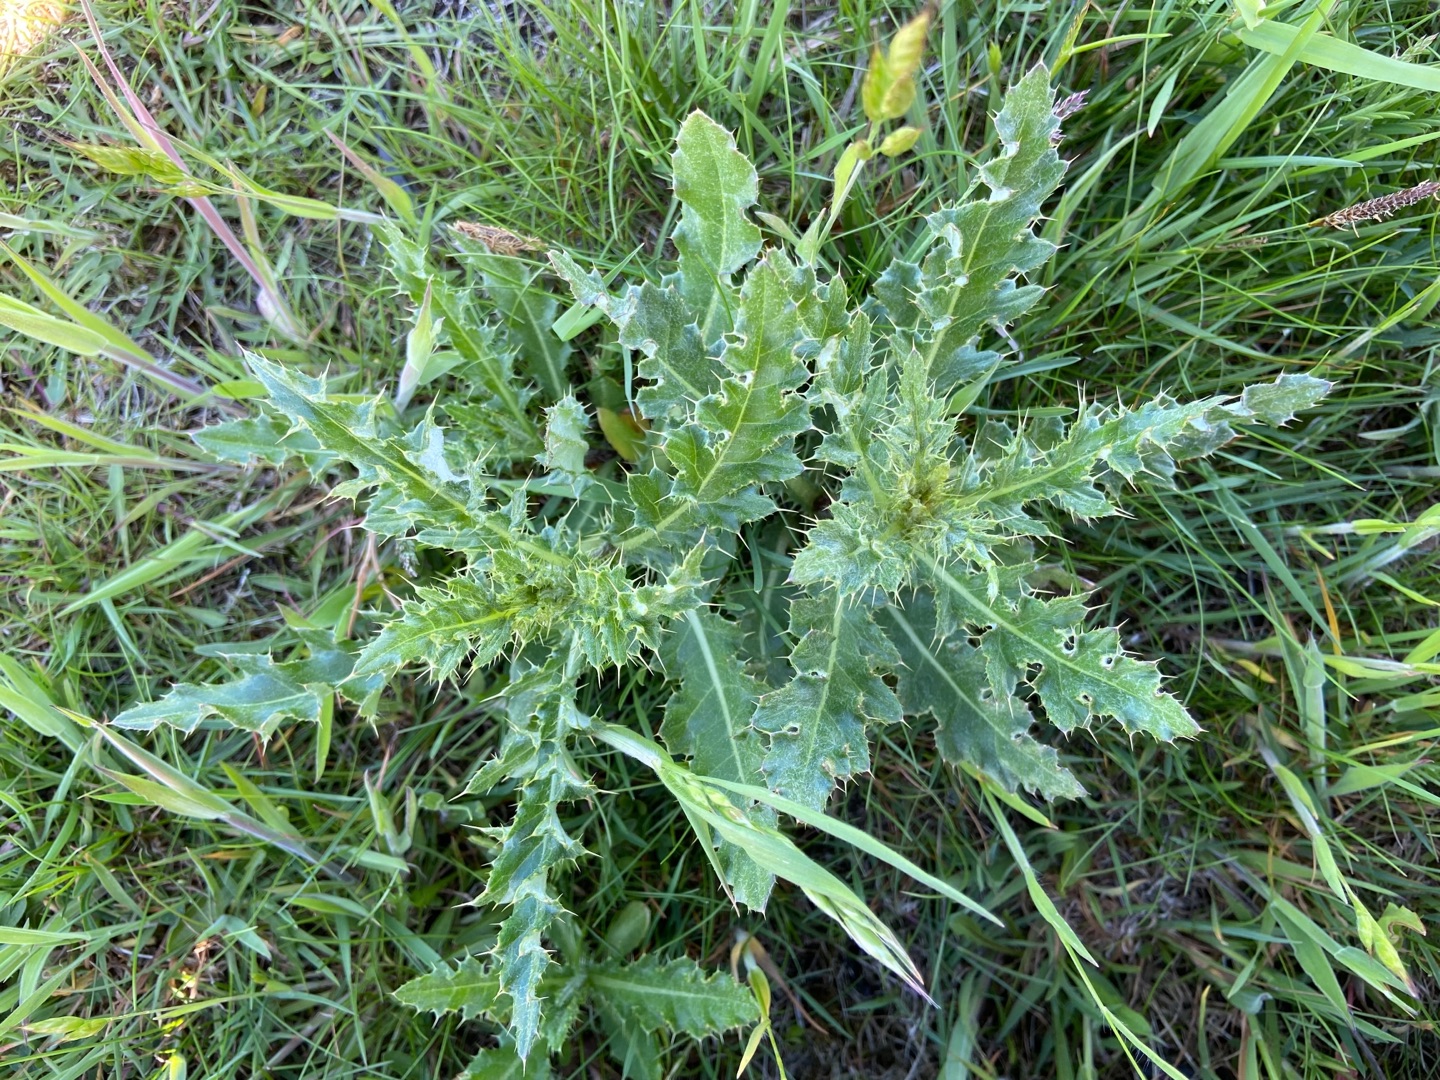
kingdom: Plantae
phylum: Tracheophyta
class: Magnoliopsida
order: Asterales
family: Asteraceae
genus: Cirsium
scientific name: Cirsium arvense
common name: Ager-tidsel
